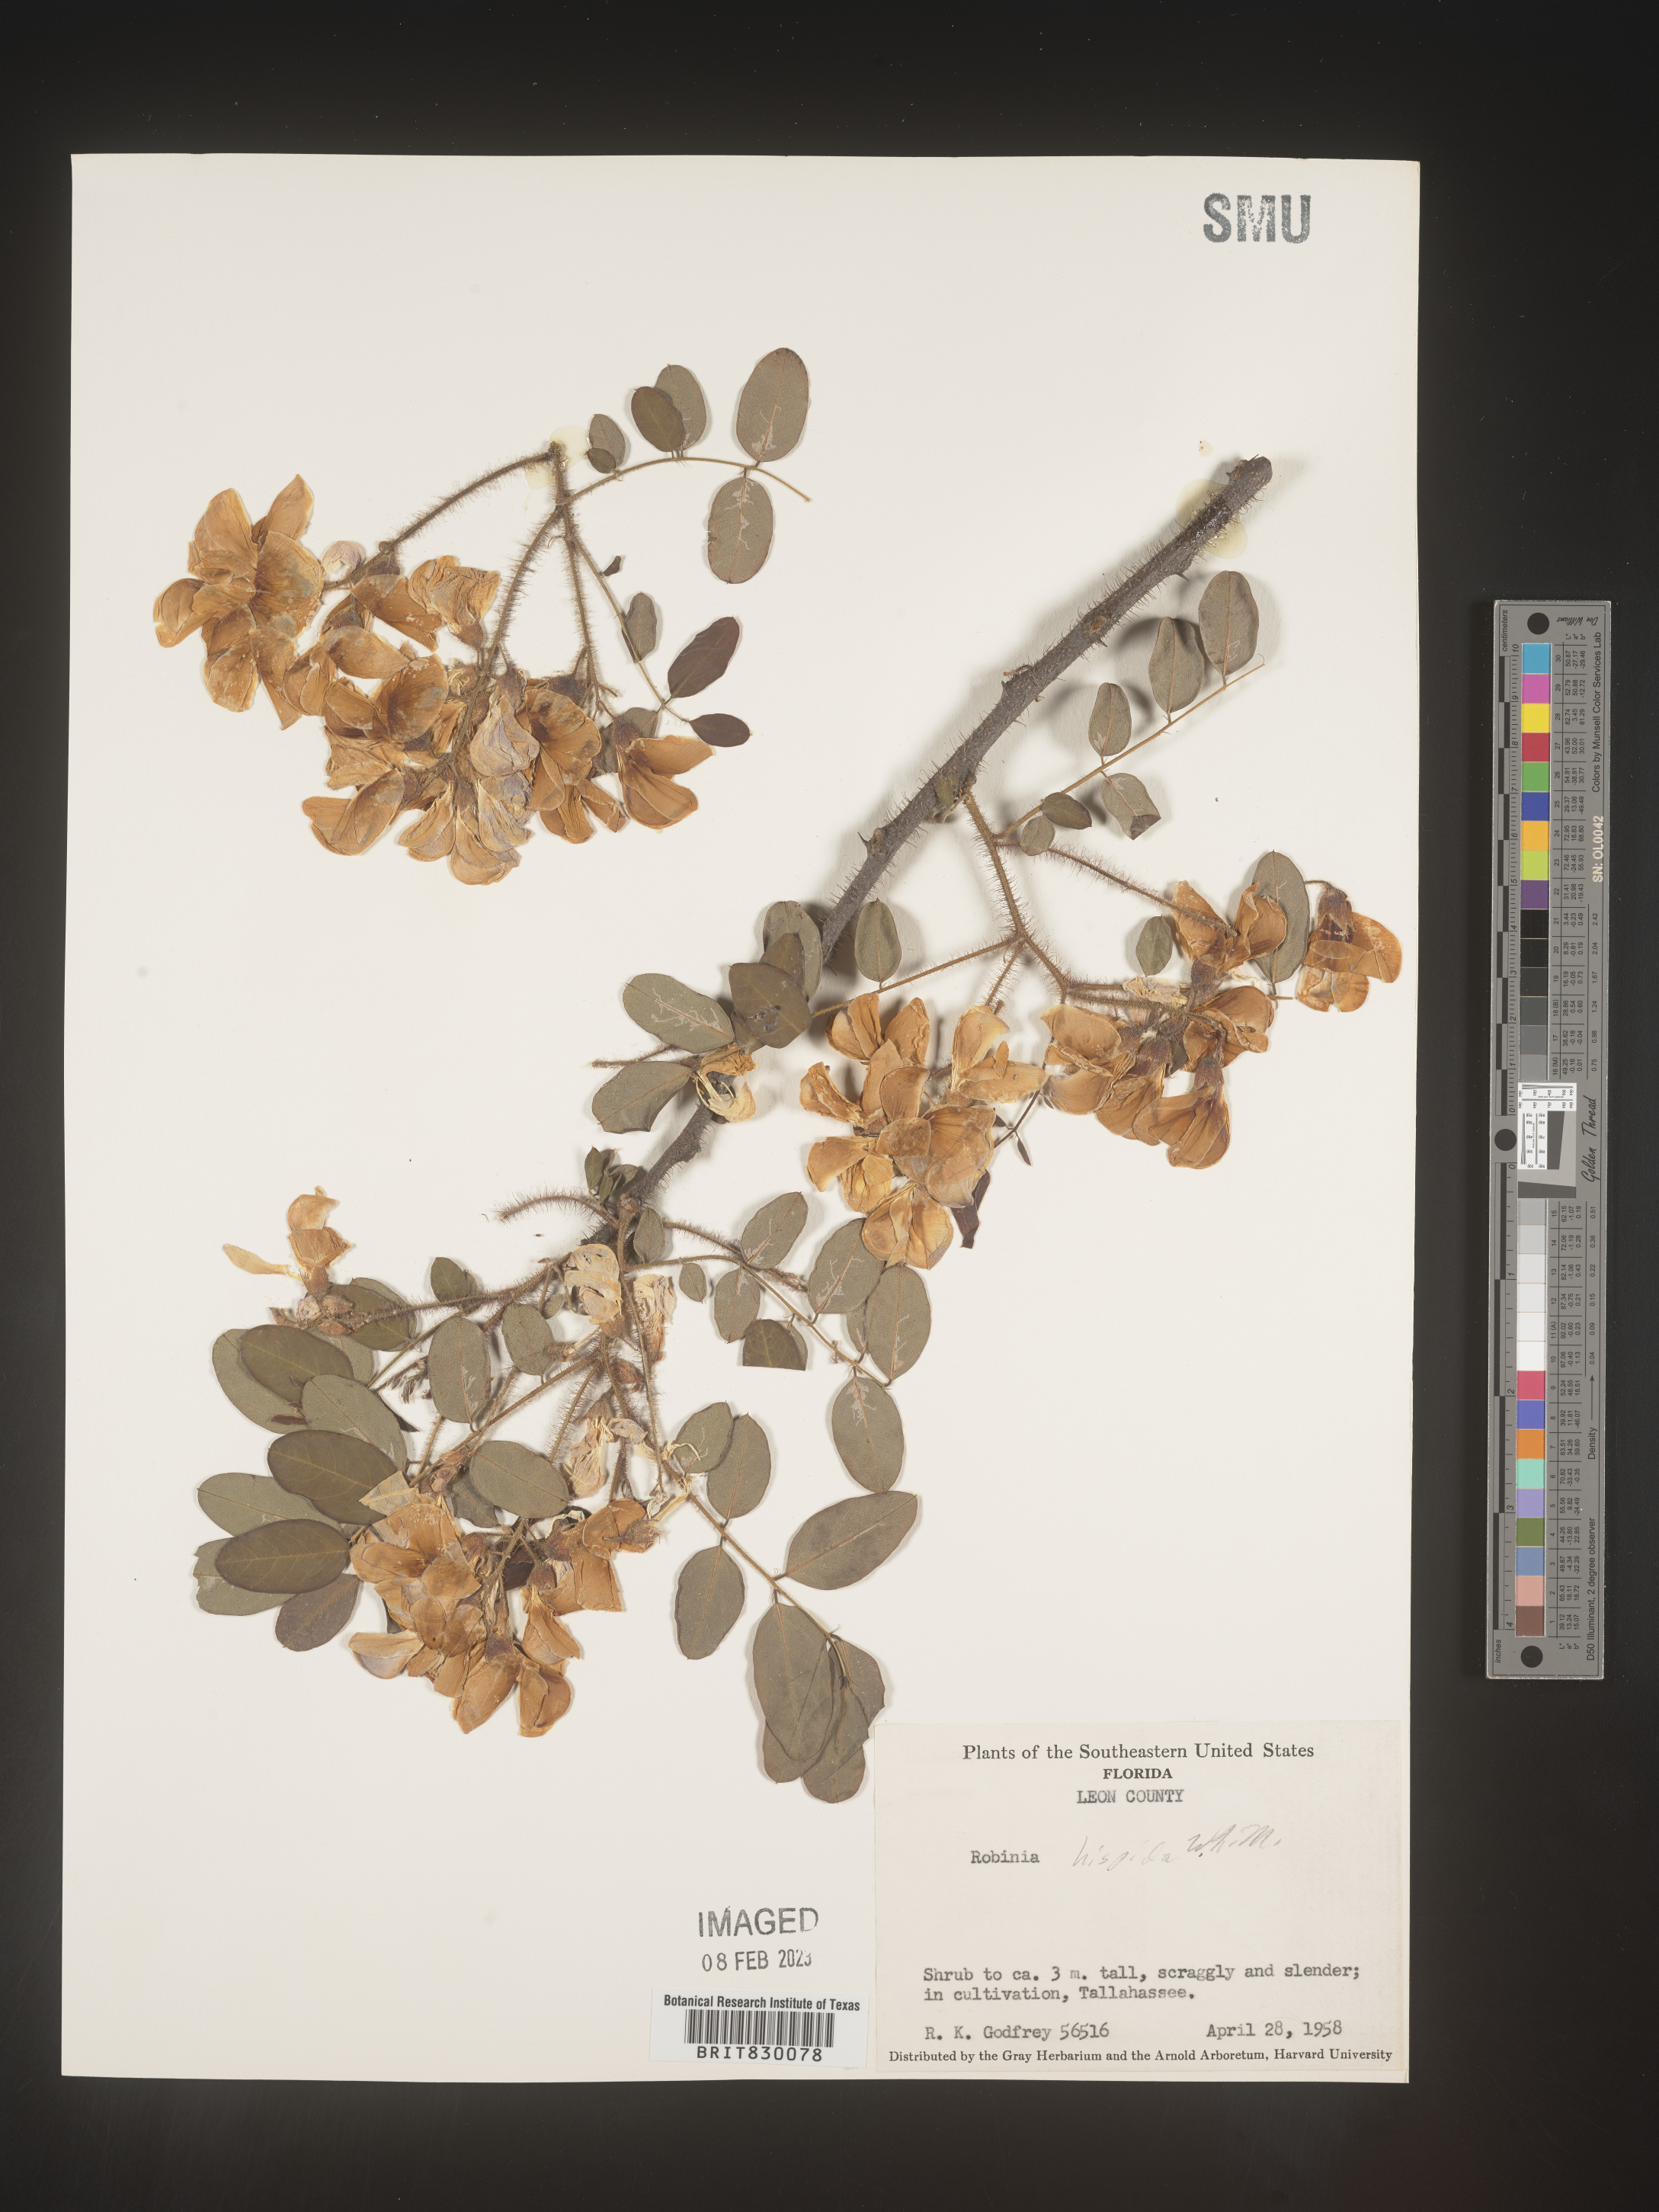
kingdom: Plantae
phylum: Tracheophyta
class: Magnoliopsida
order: Fabales
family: Fabaceae
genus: Robinia
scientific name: Robinia hispida
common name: Bristly locust
